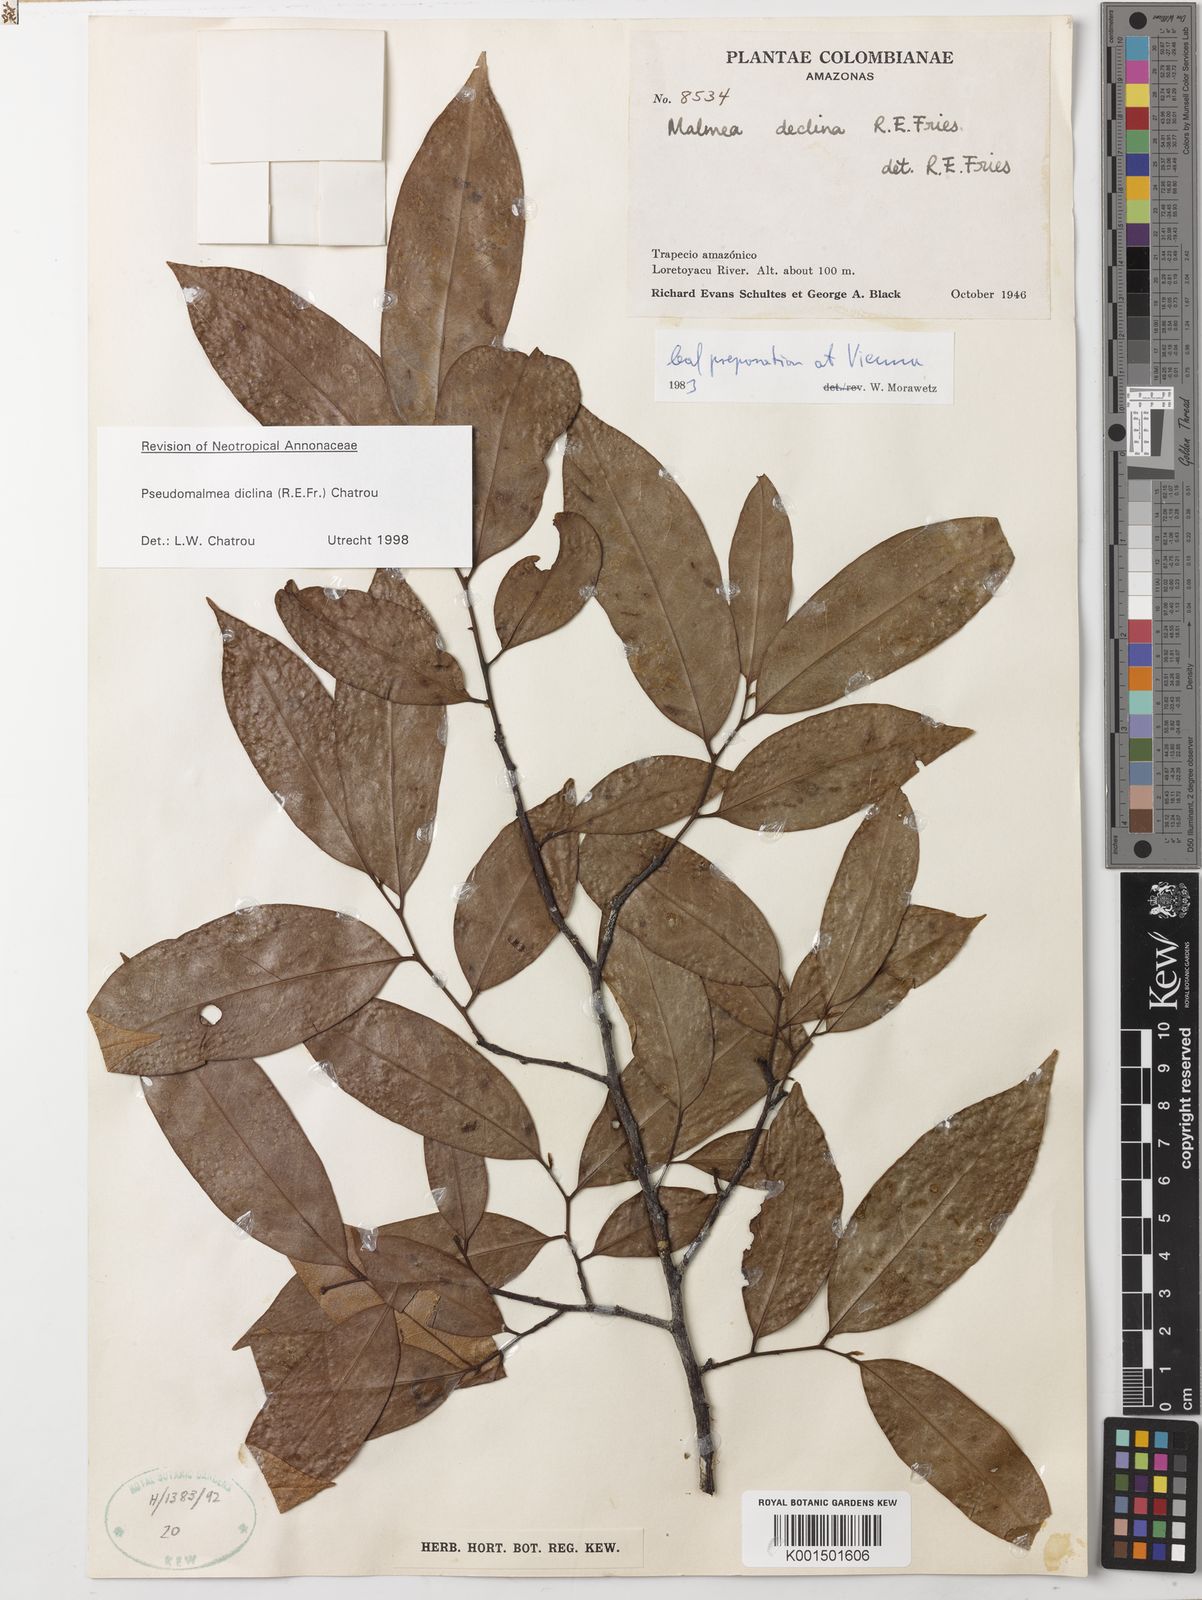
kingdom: Plantae
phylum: Tracheophyta
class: Magnoliopsida
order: Magnoliales
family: Annonaceae
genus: Pseudomalmea
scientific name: Pseudomalmea diclina
